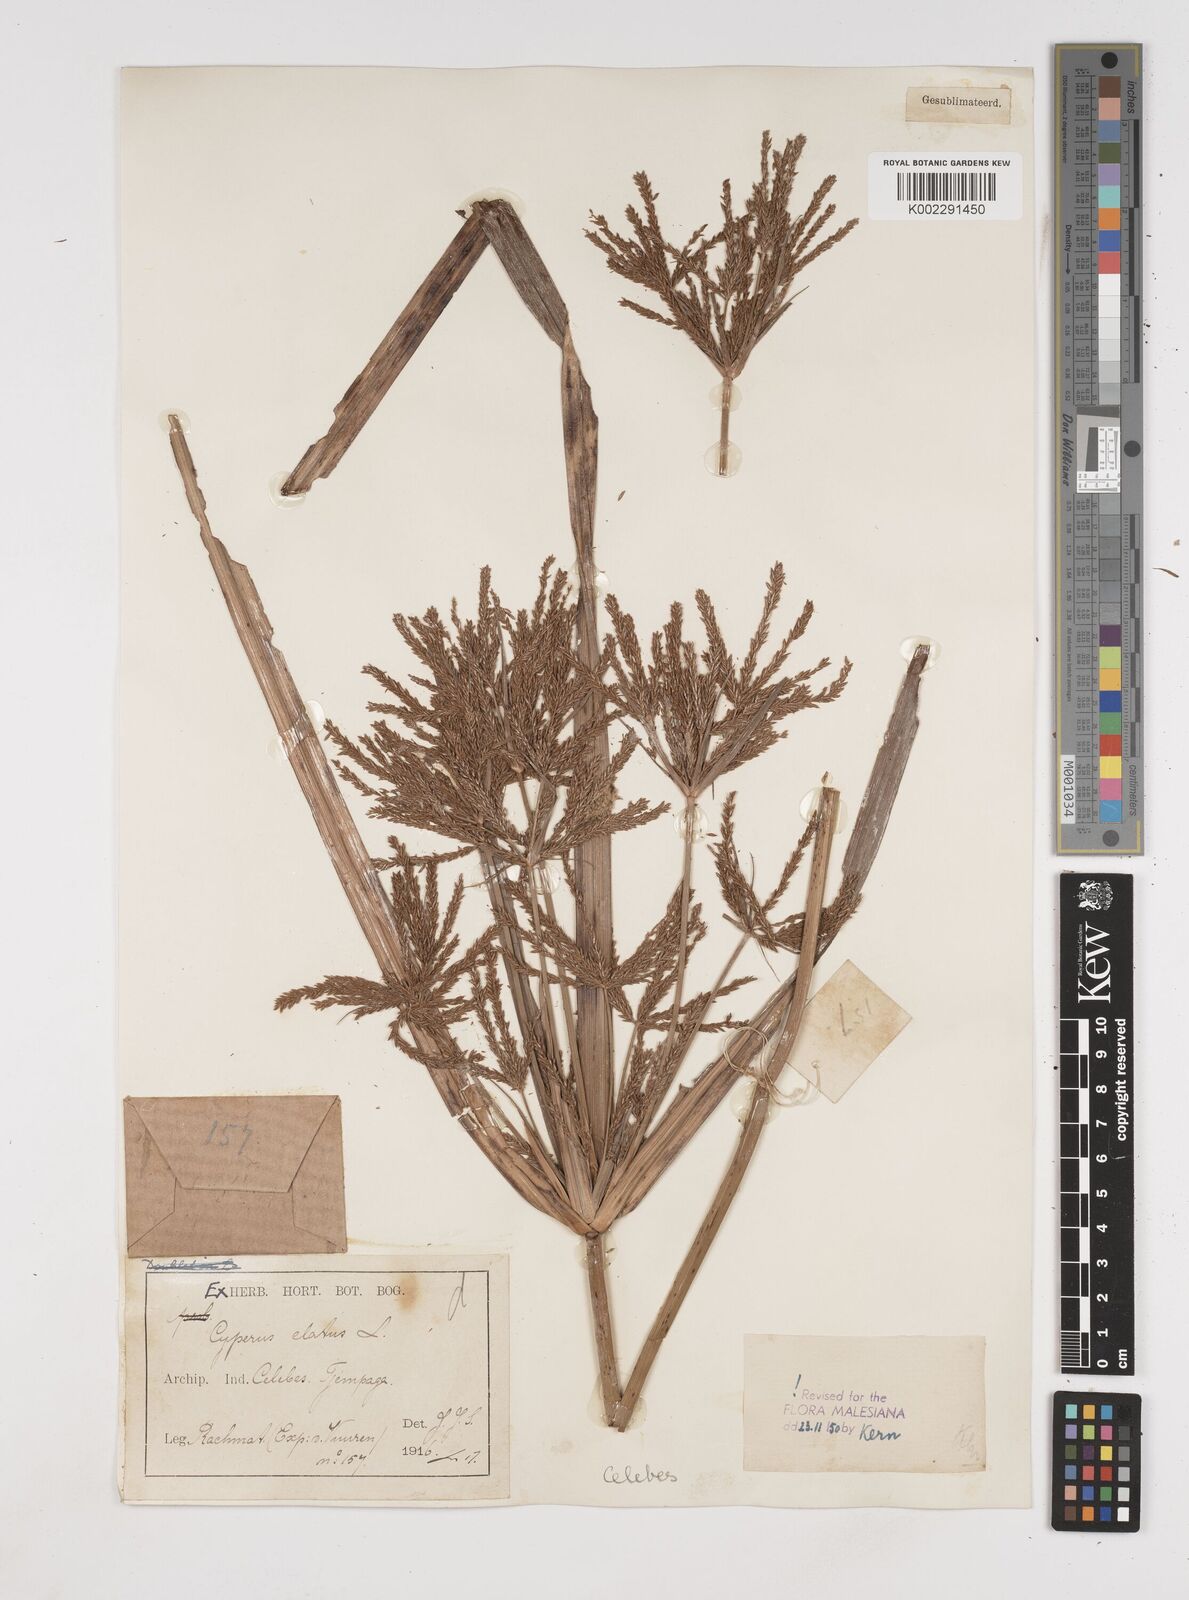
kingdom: Plantae
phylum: Tracheophyta
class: Liliopsida
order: Poales
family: Cyperaceae
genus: Cyperus
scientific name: Cyperus elatus
